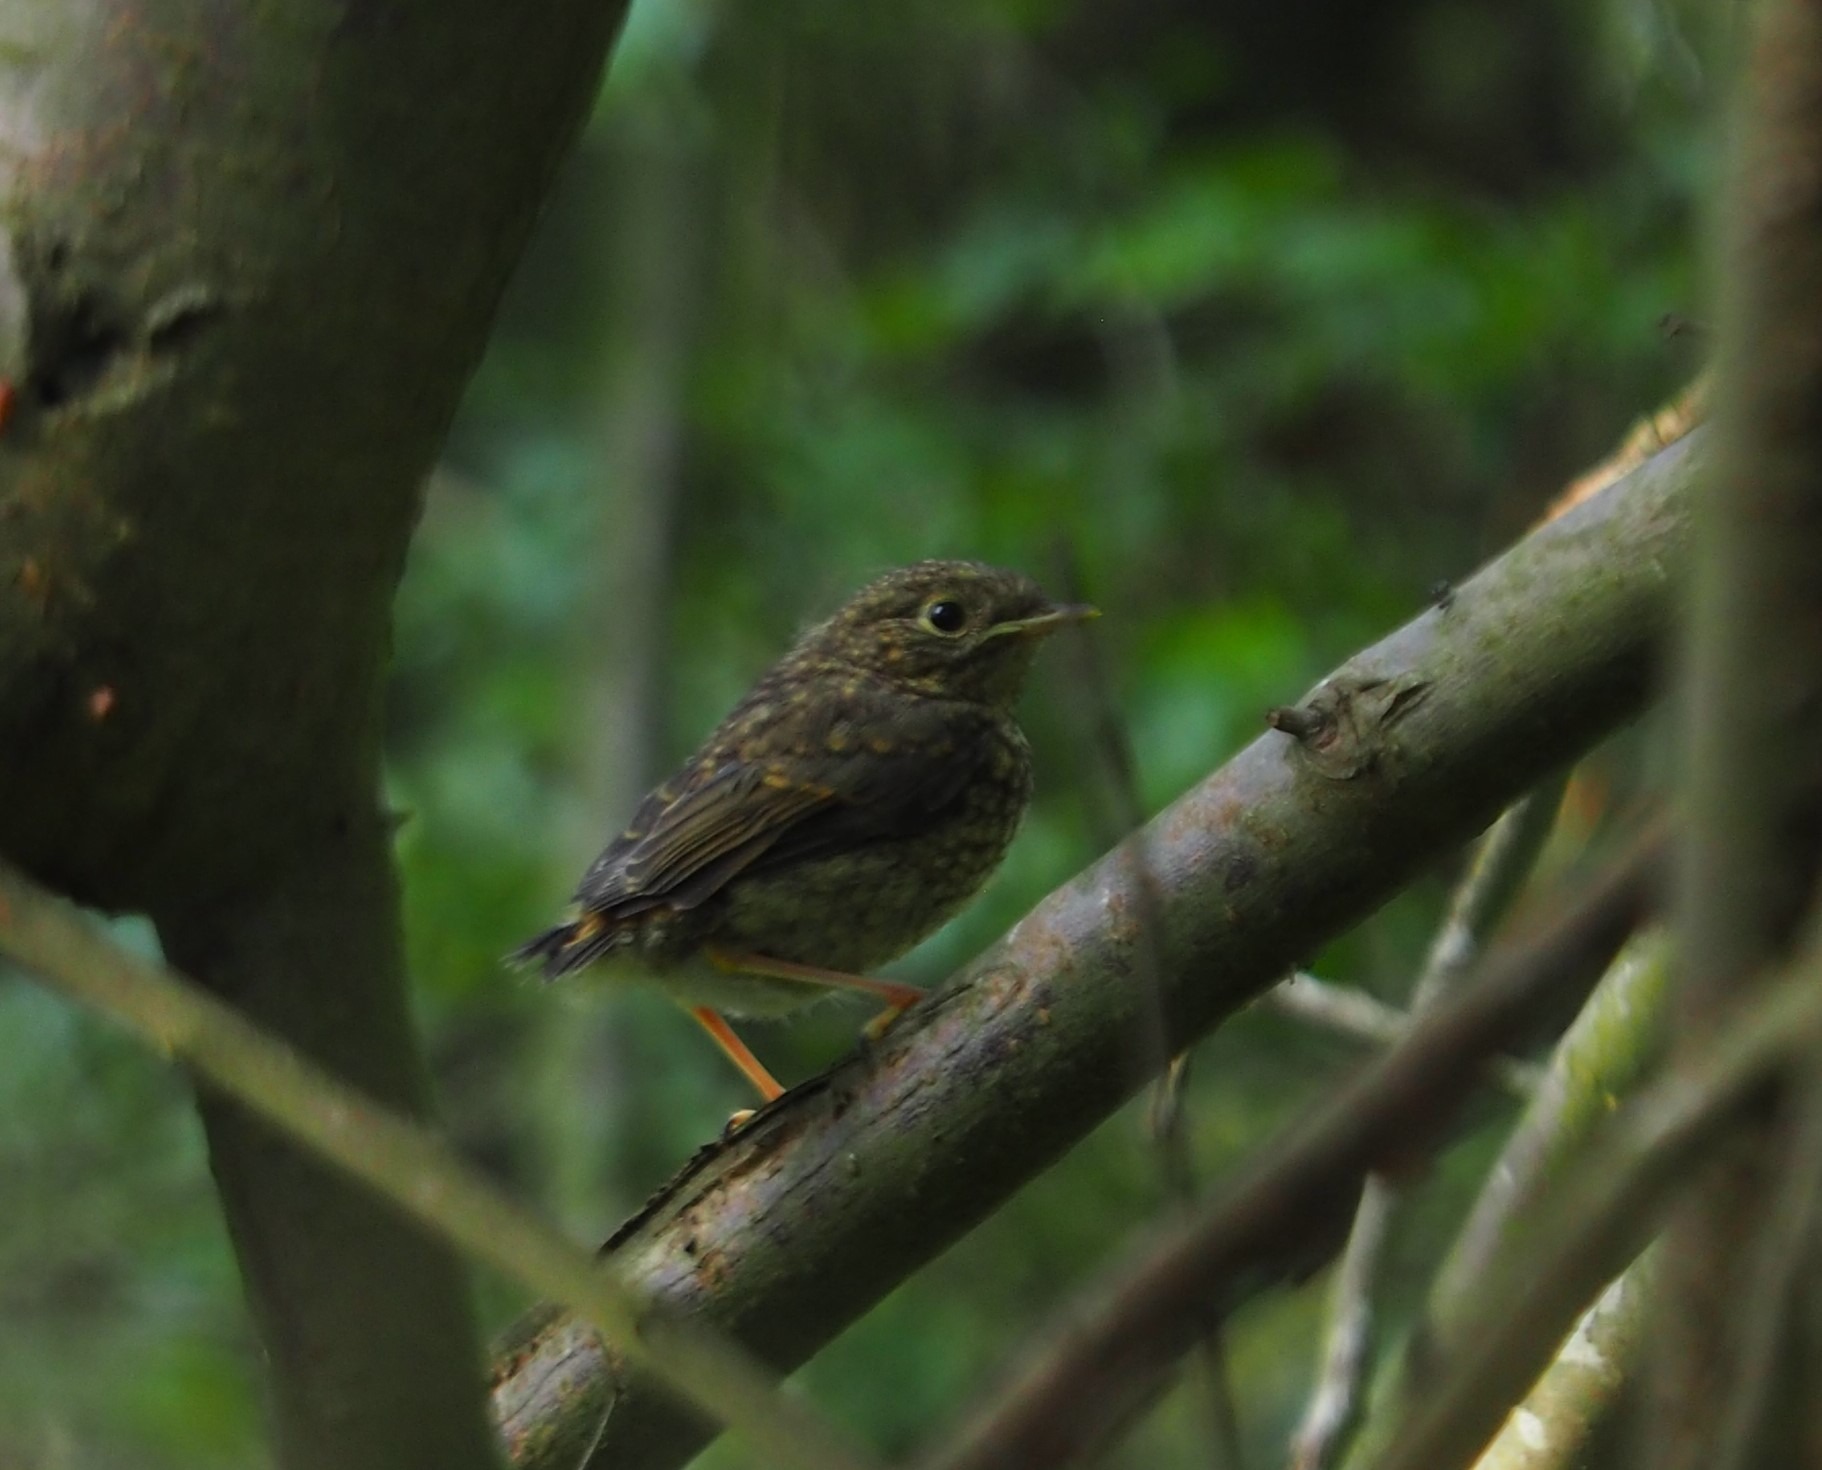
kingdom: Animalia
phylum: Chordata
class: Aves
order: Passeriformes
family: Muscicapidae
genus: Erithacus
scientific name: Erithacus rubecula
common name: Rødhals/rødkælk
